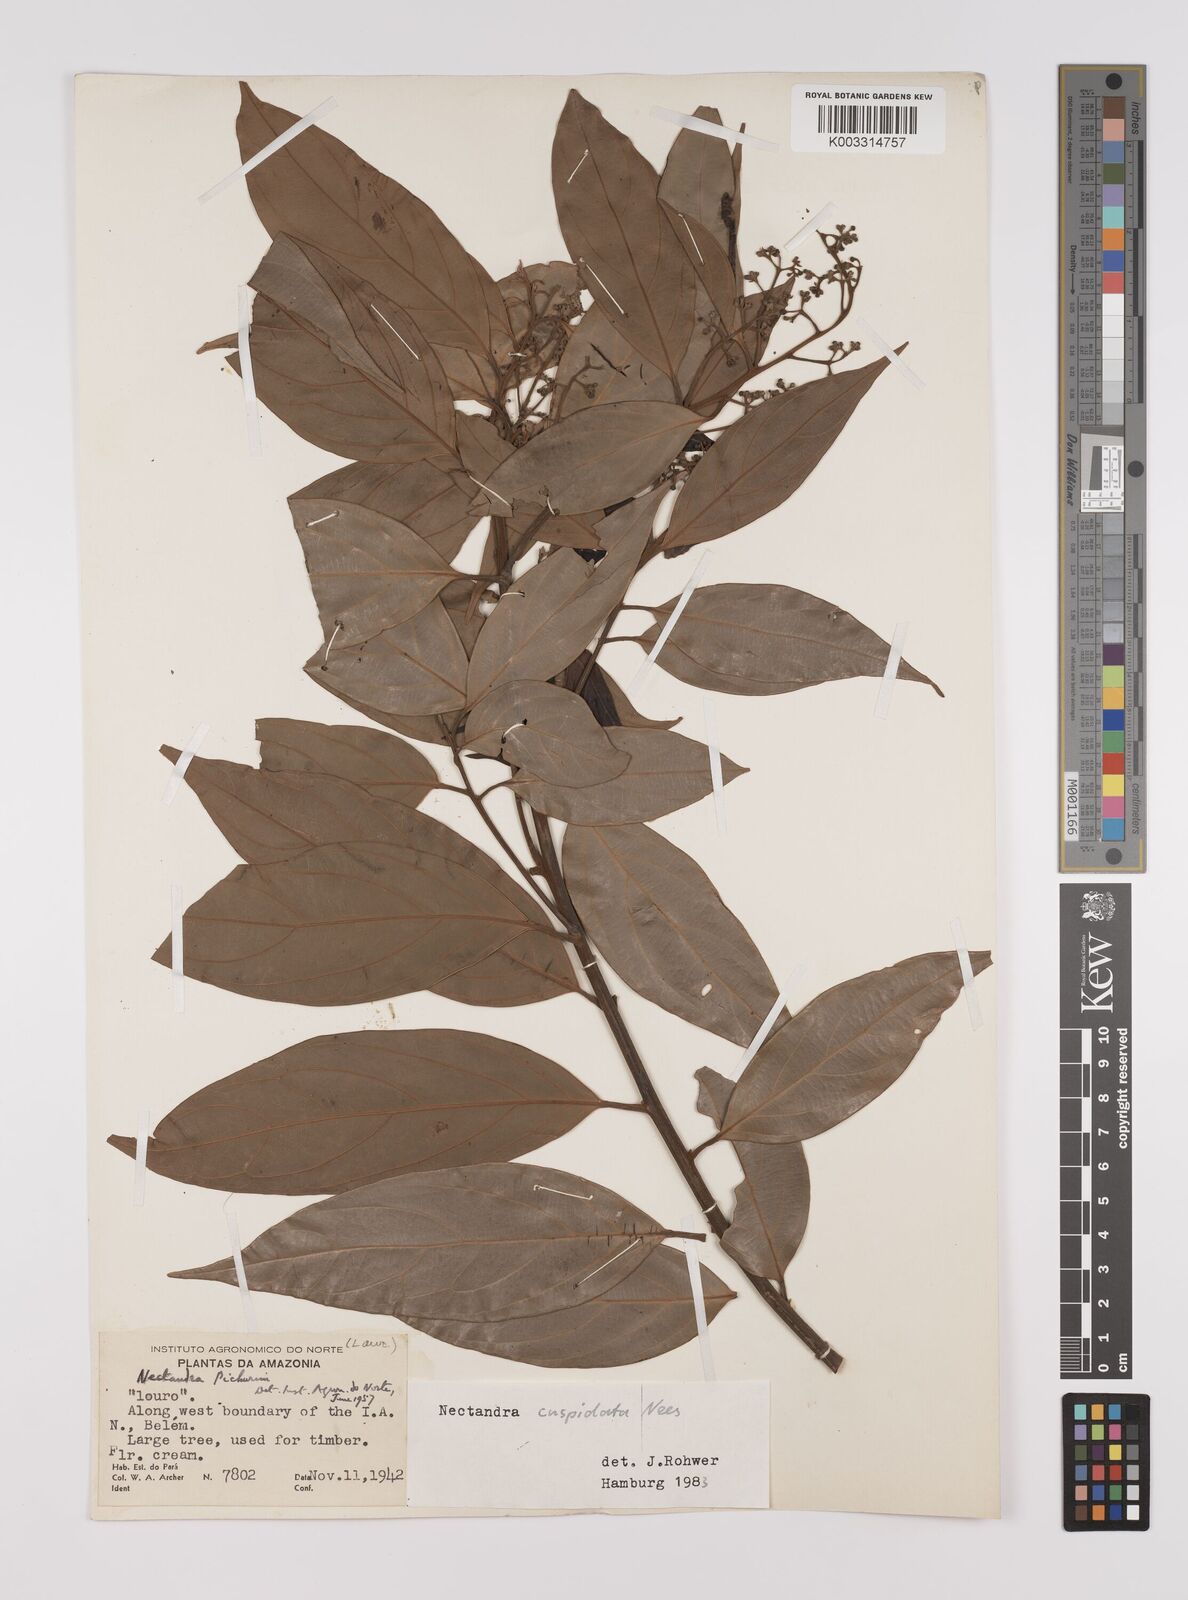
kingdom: Plantae
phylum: Tracheophyta
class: Magnoliopsida
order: Laurales
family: Lauraceae
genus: Nectandra
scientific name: Nectandra cuspidata
